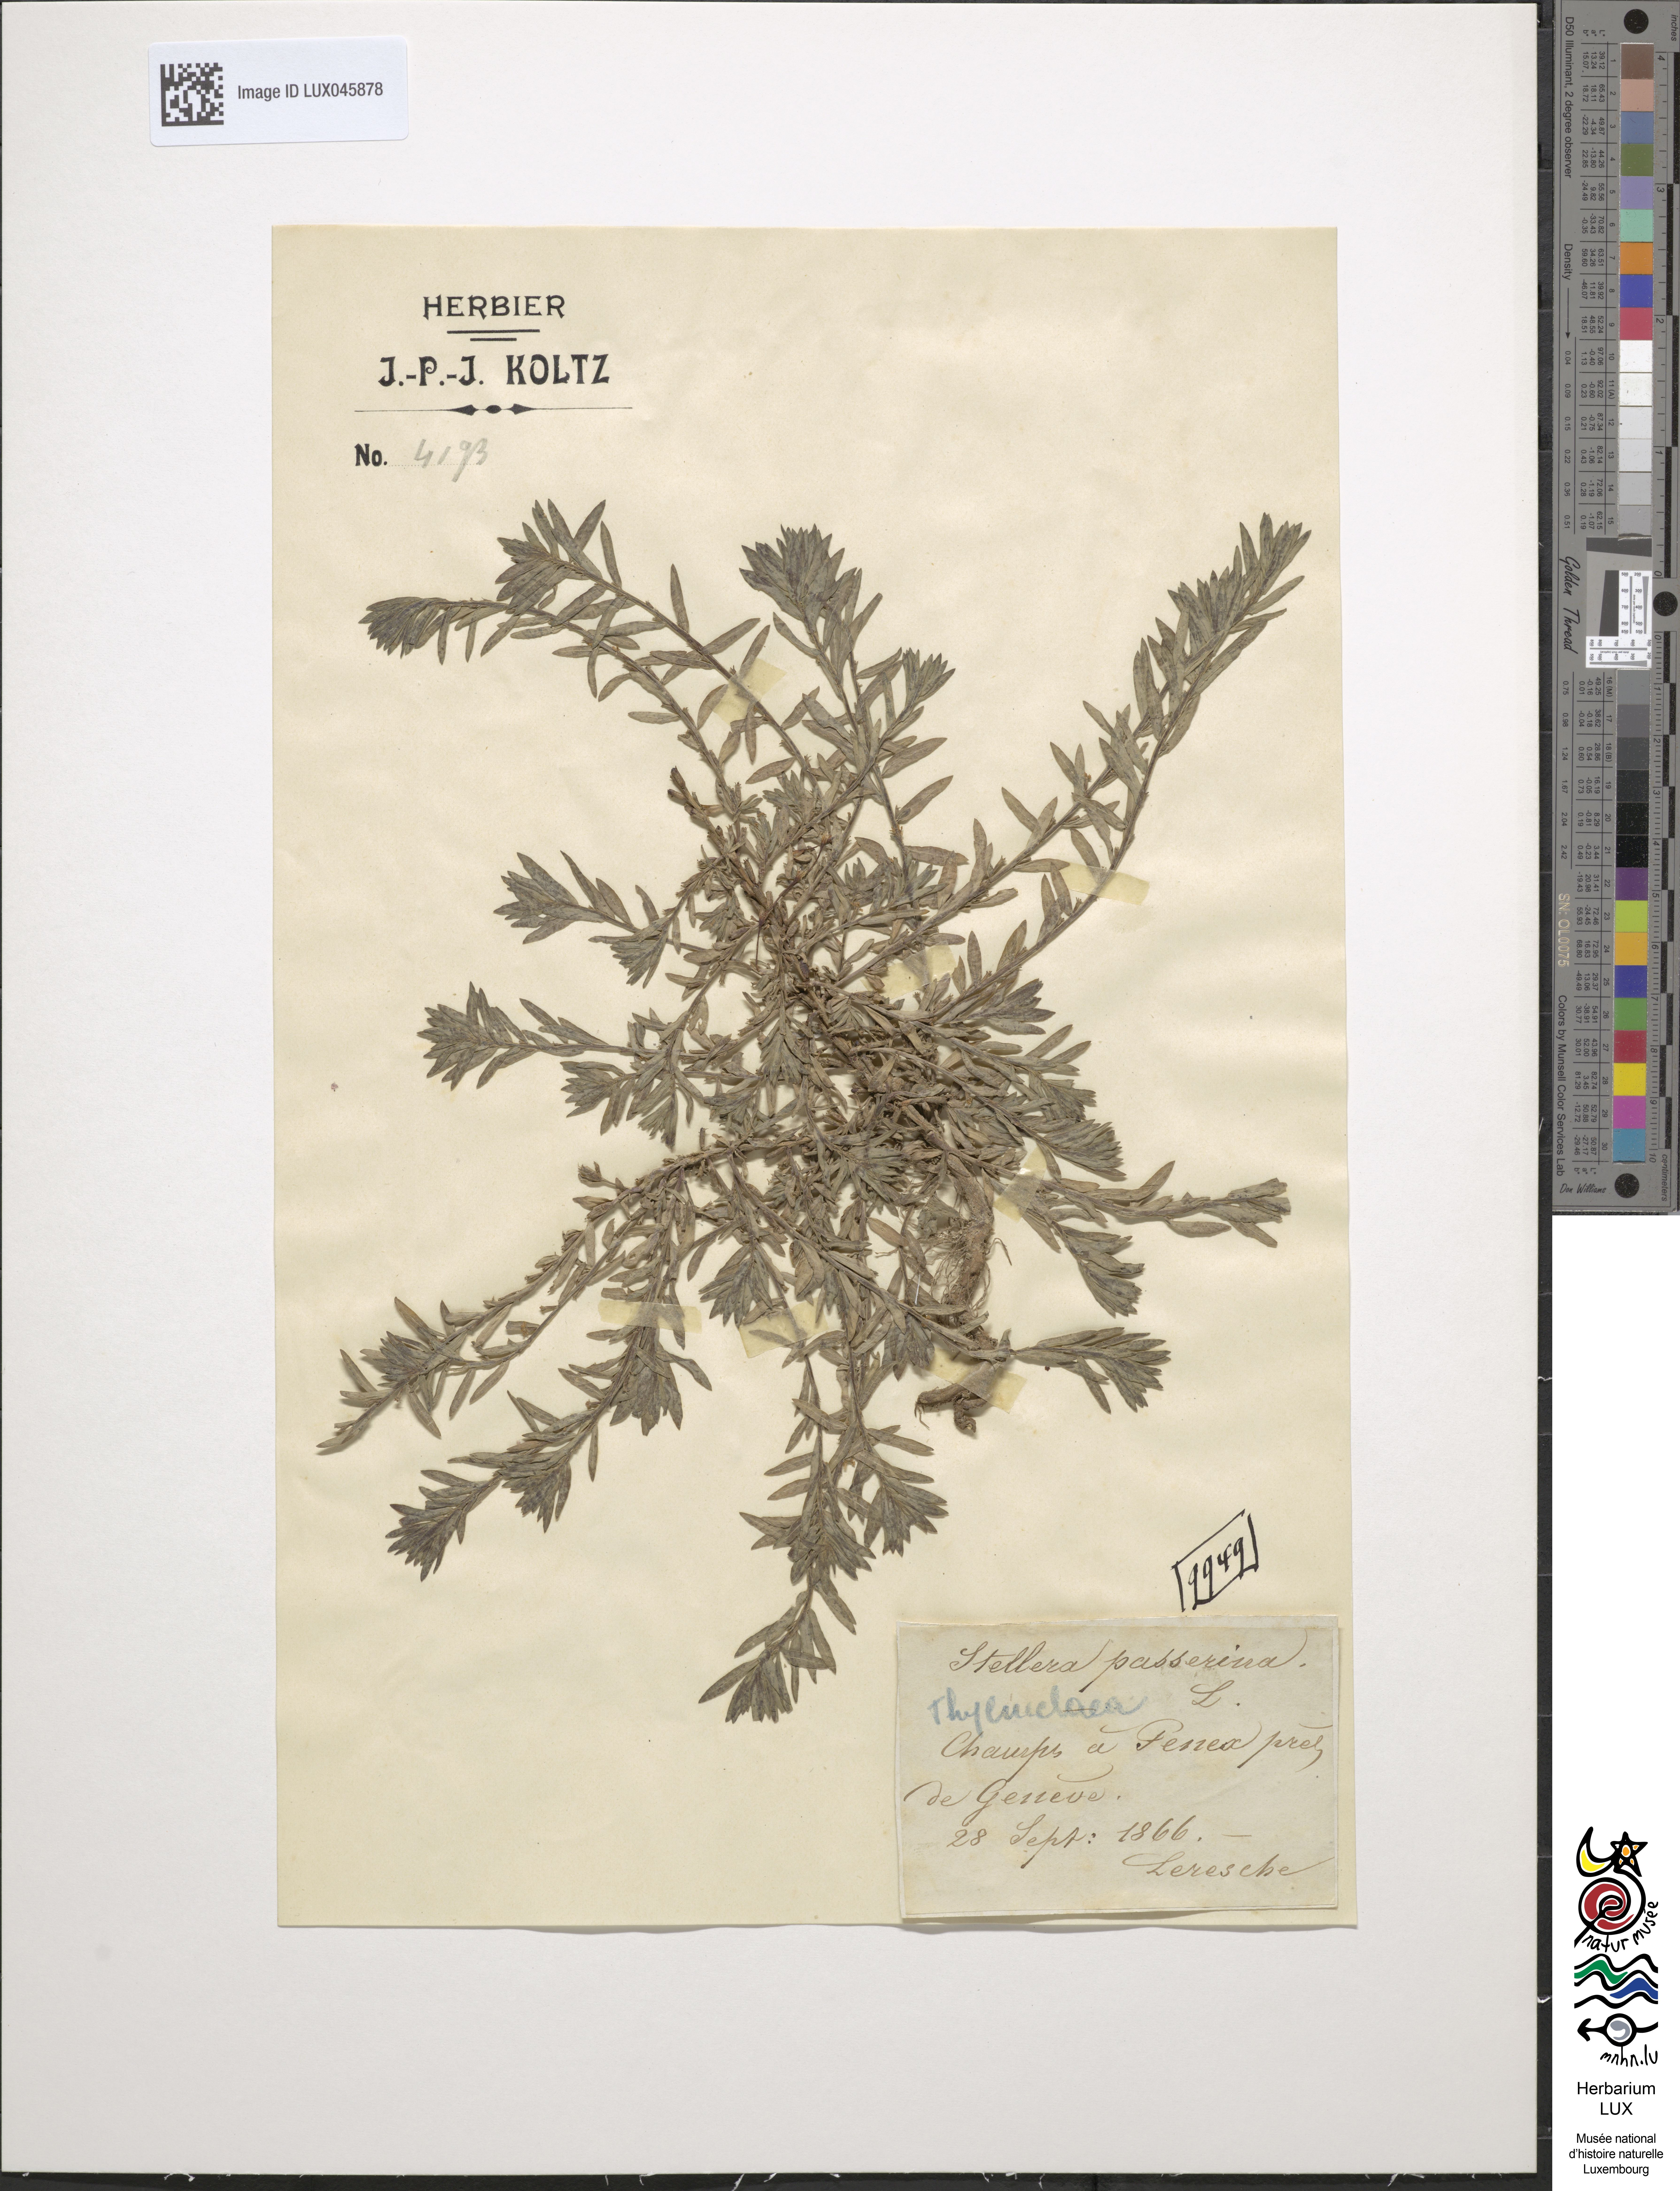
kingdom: Plantae
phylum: Tracheophyta
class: Magnoliopsida
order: Malvales
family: Thymelaeaceae
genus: Thymelaea
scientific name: Thymelaea passerina
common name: Annual thymelaea
